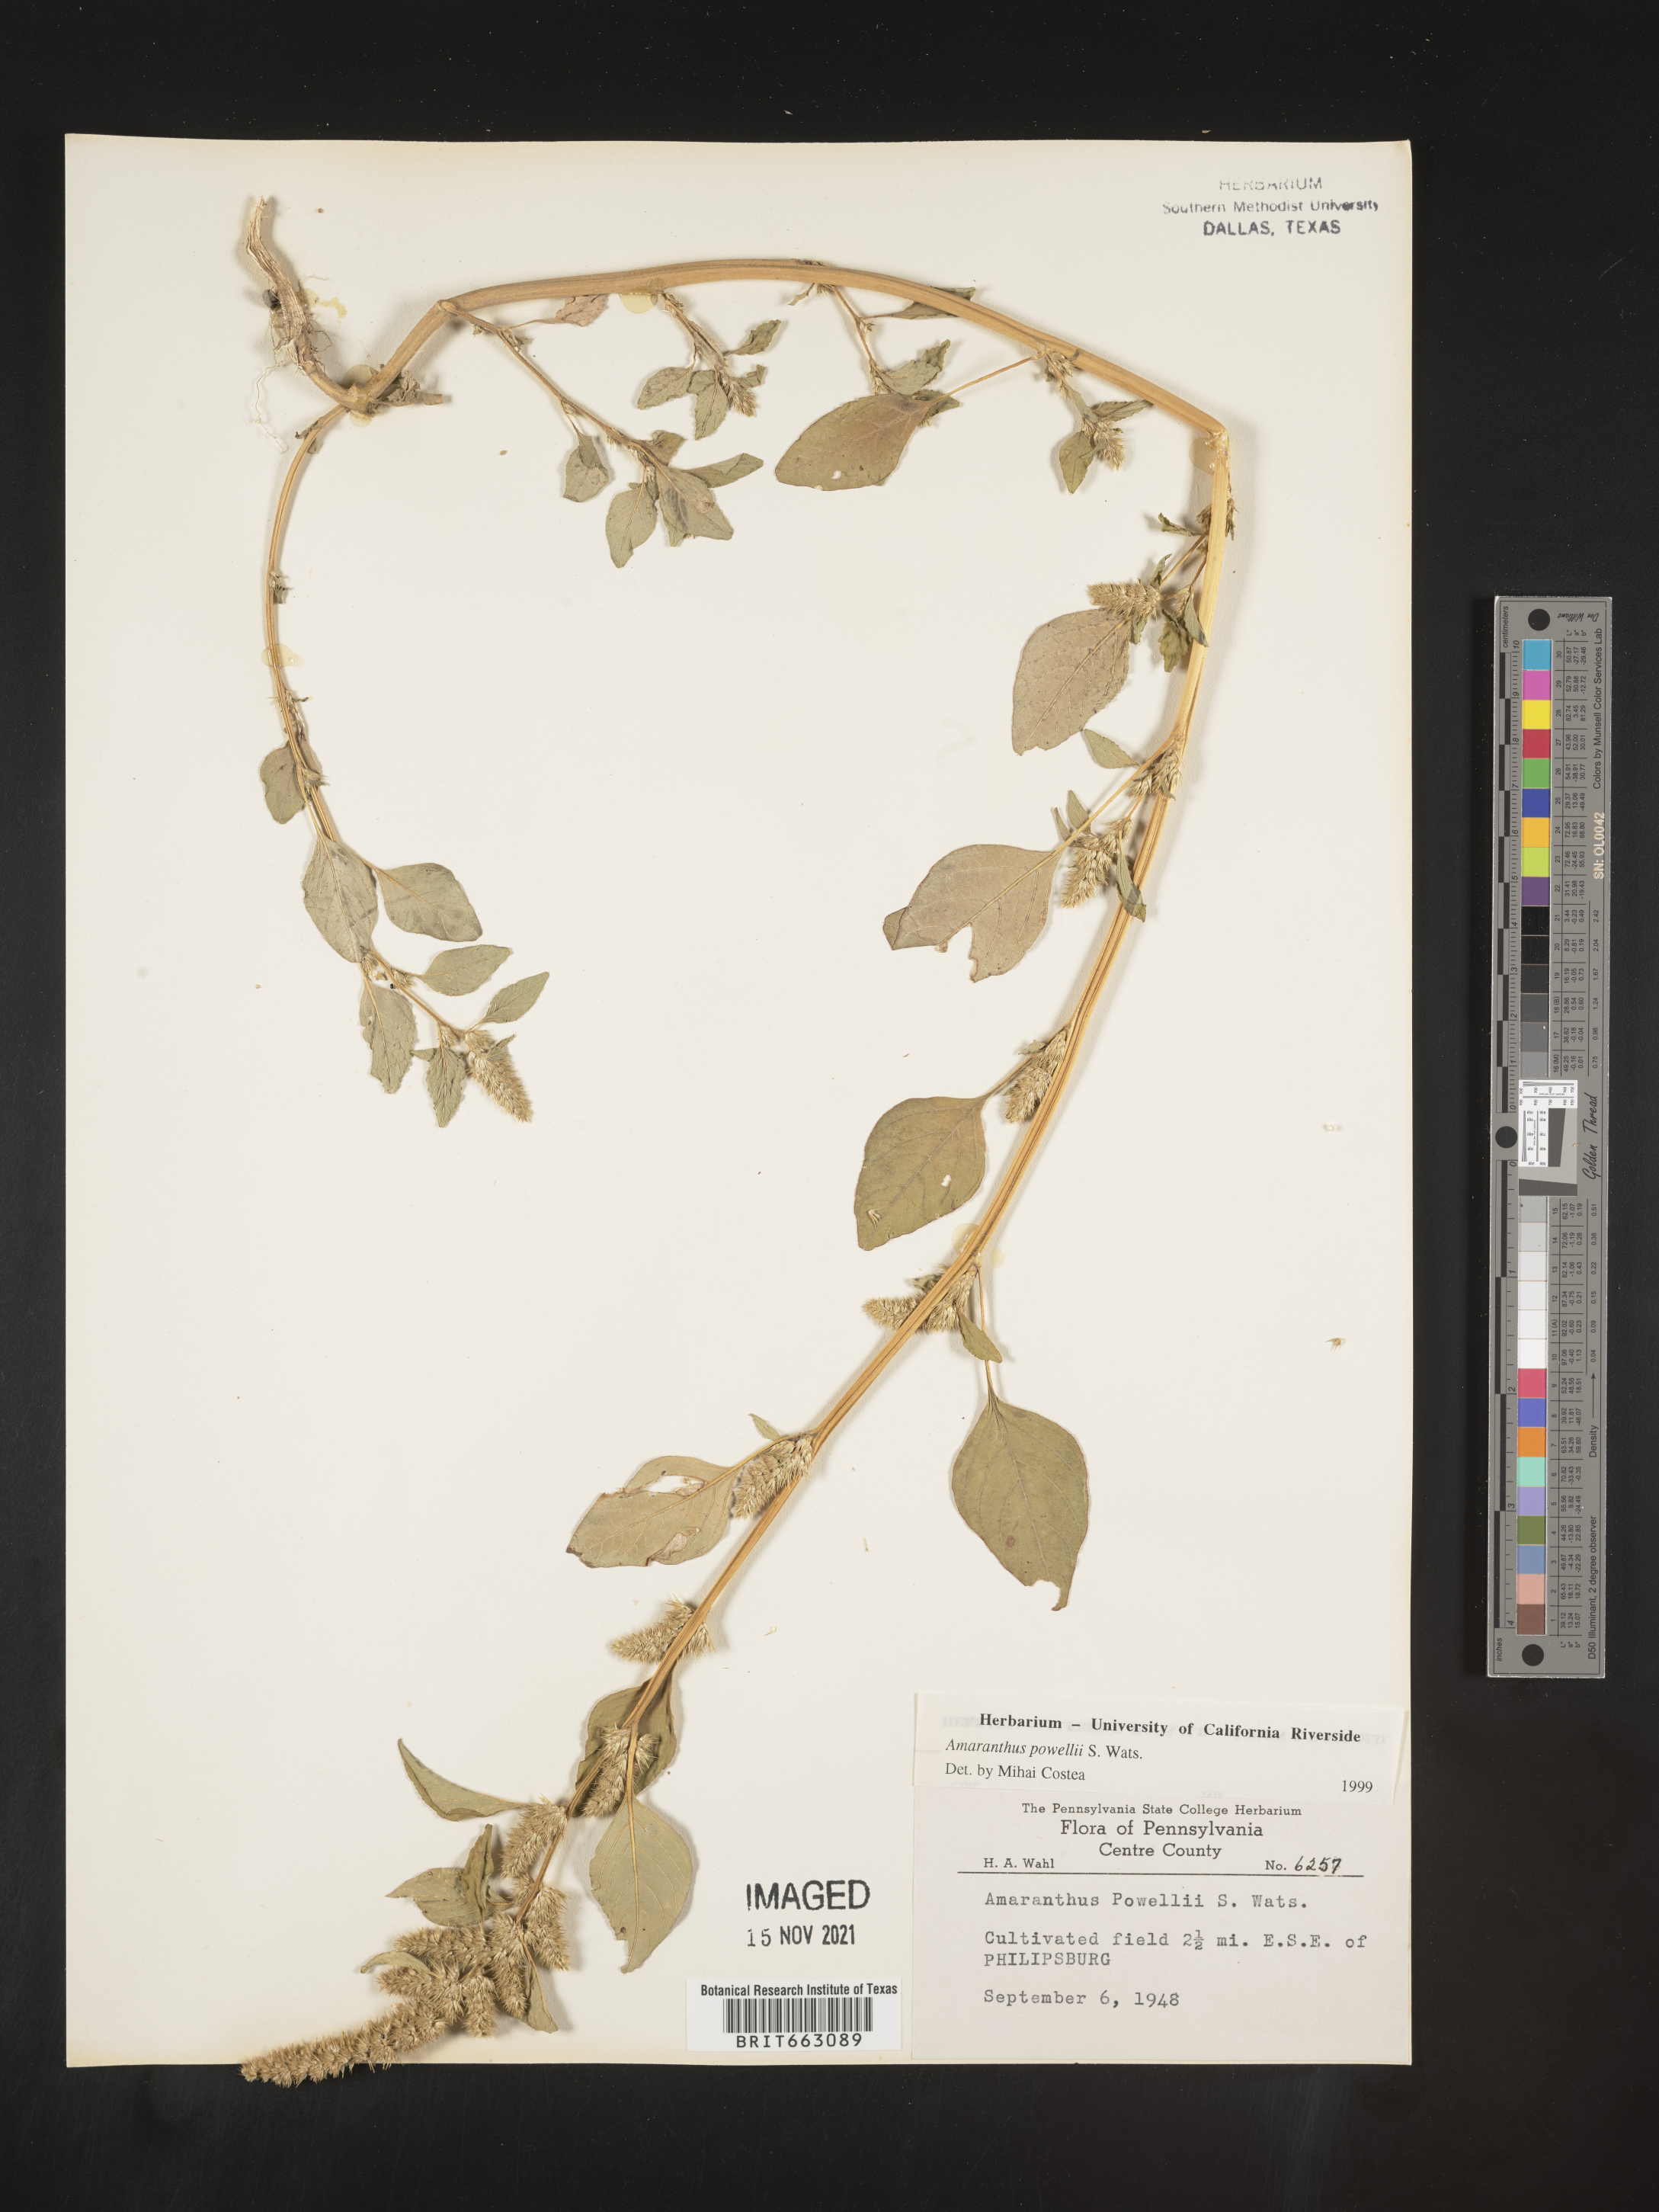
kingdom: Plantae
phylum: Tracheophyta
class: Magnoliopsida
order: Caryophyllales
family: Amaranthaceae
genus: Amaranthus
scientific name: Amaranthus powellii
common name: Powell's amaranth
